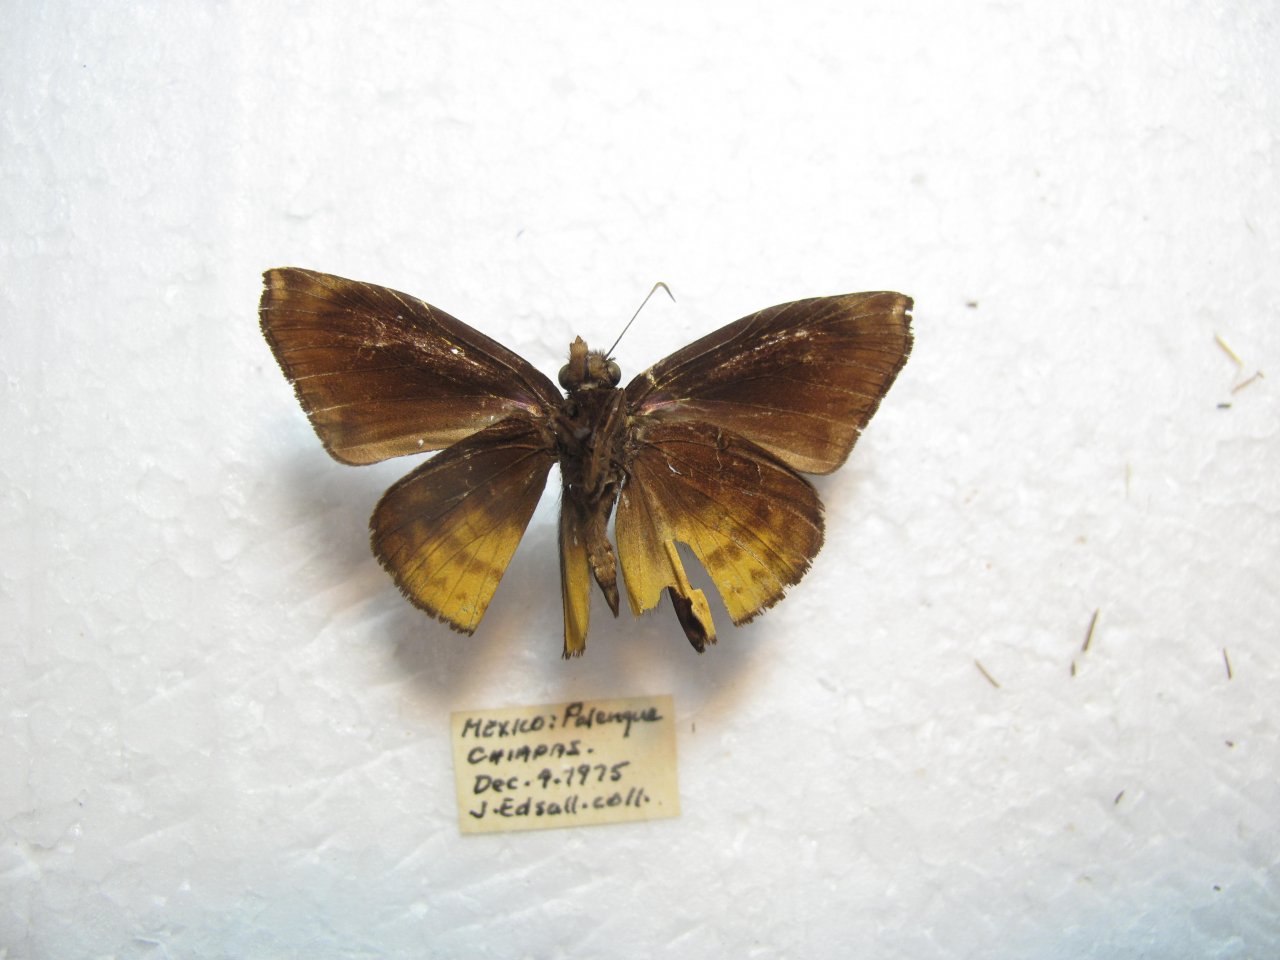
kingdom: Animalia
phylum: Arthropoda
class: Insecta
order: Lepidoptera
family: Hesperiidae
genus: Ebrietas
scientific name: Ebrietas osyris
